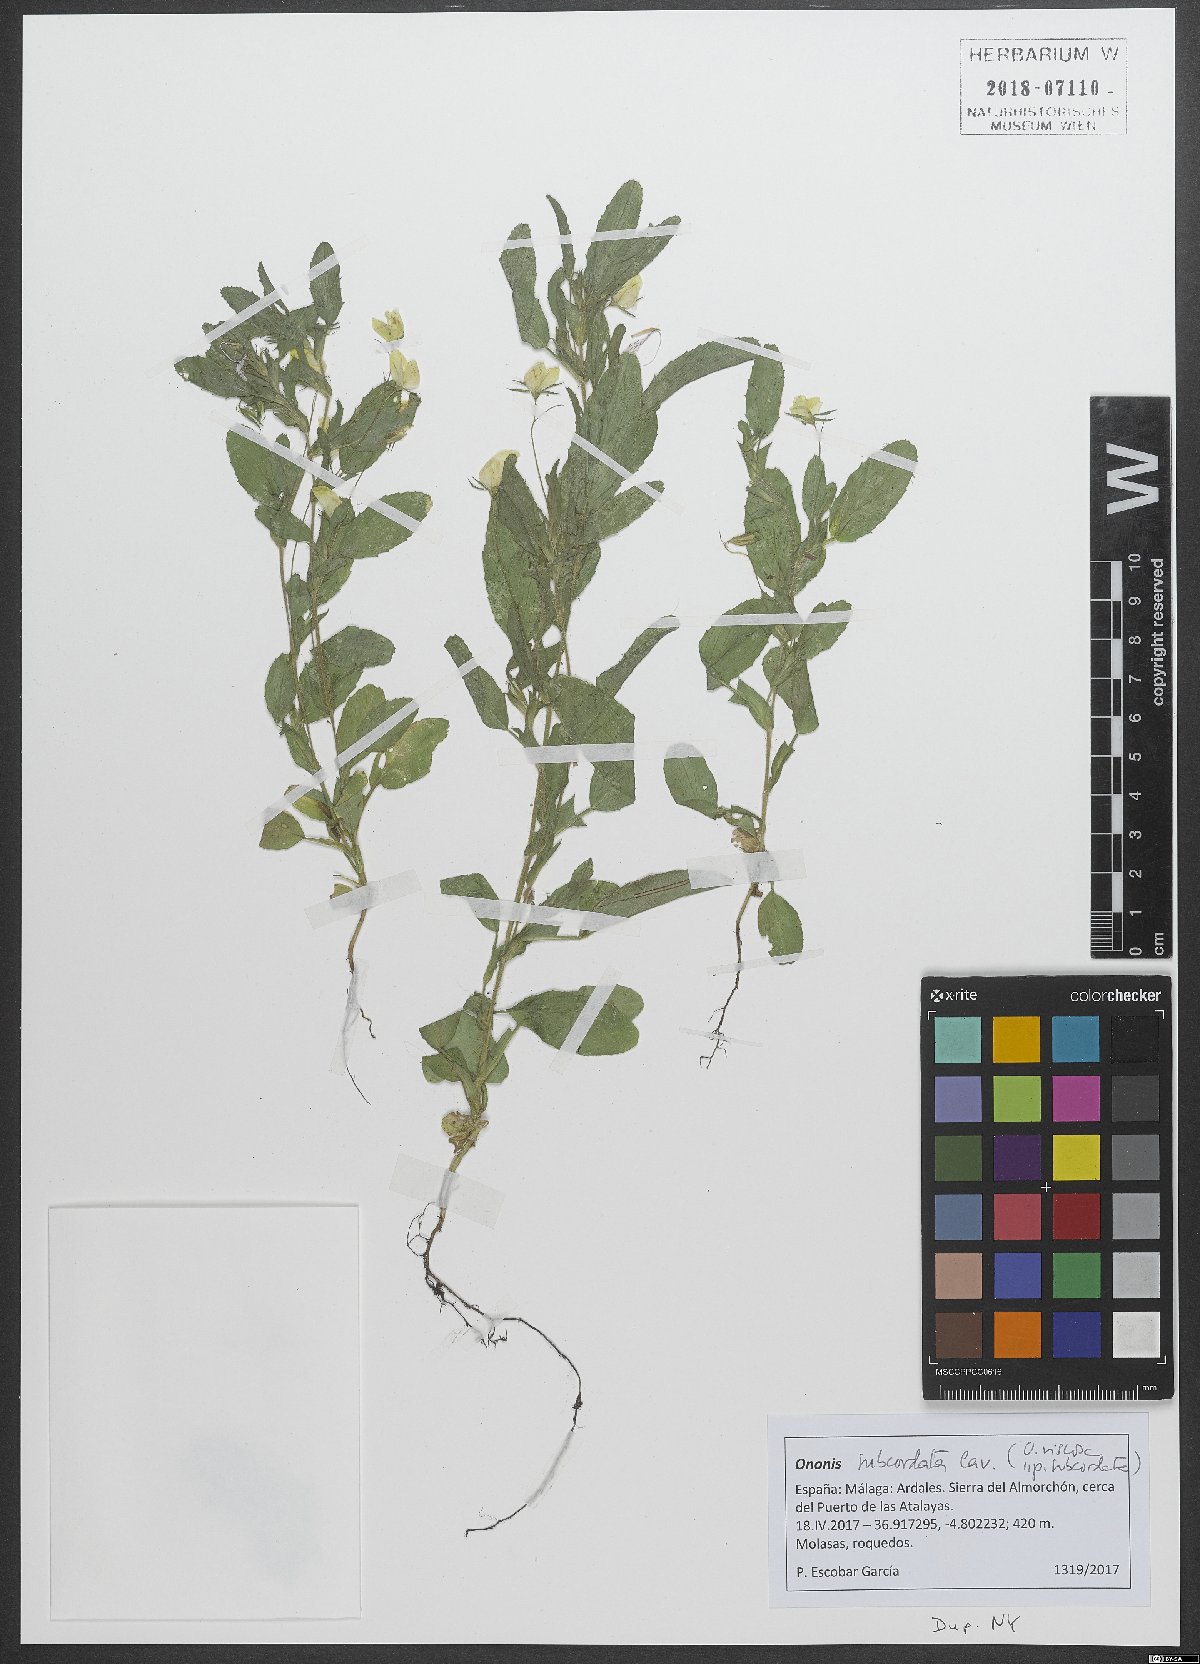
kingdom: Plantae
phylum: Tracheophyta
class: Magnoliopsida
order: Fabales
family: Fabaceae
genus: Ononis
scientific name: Ononis viscosa
